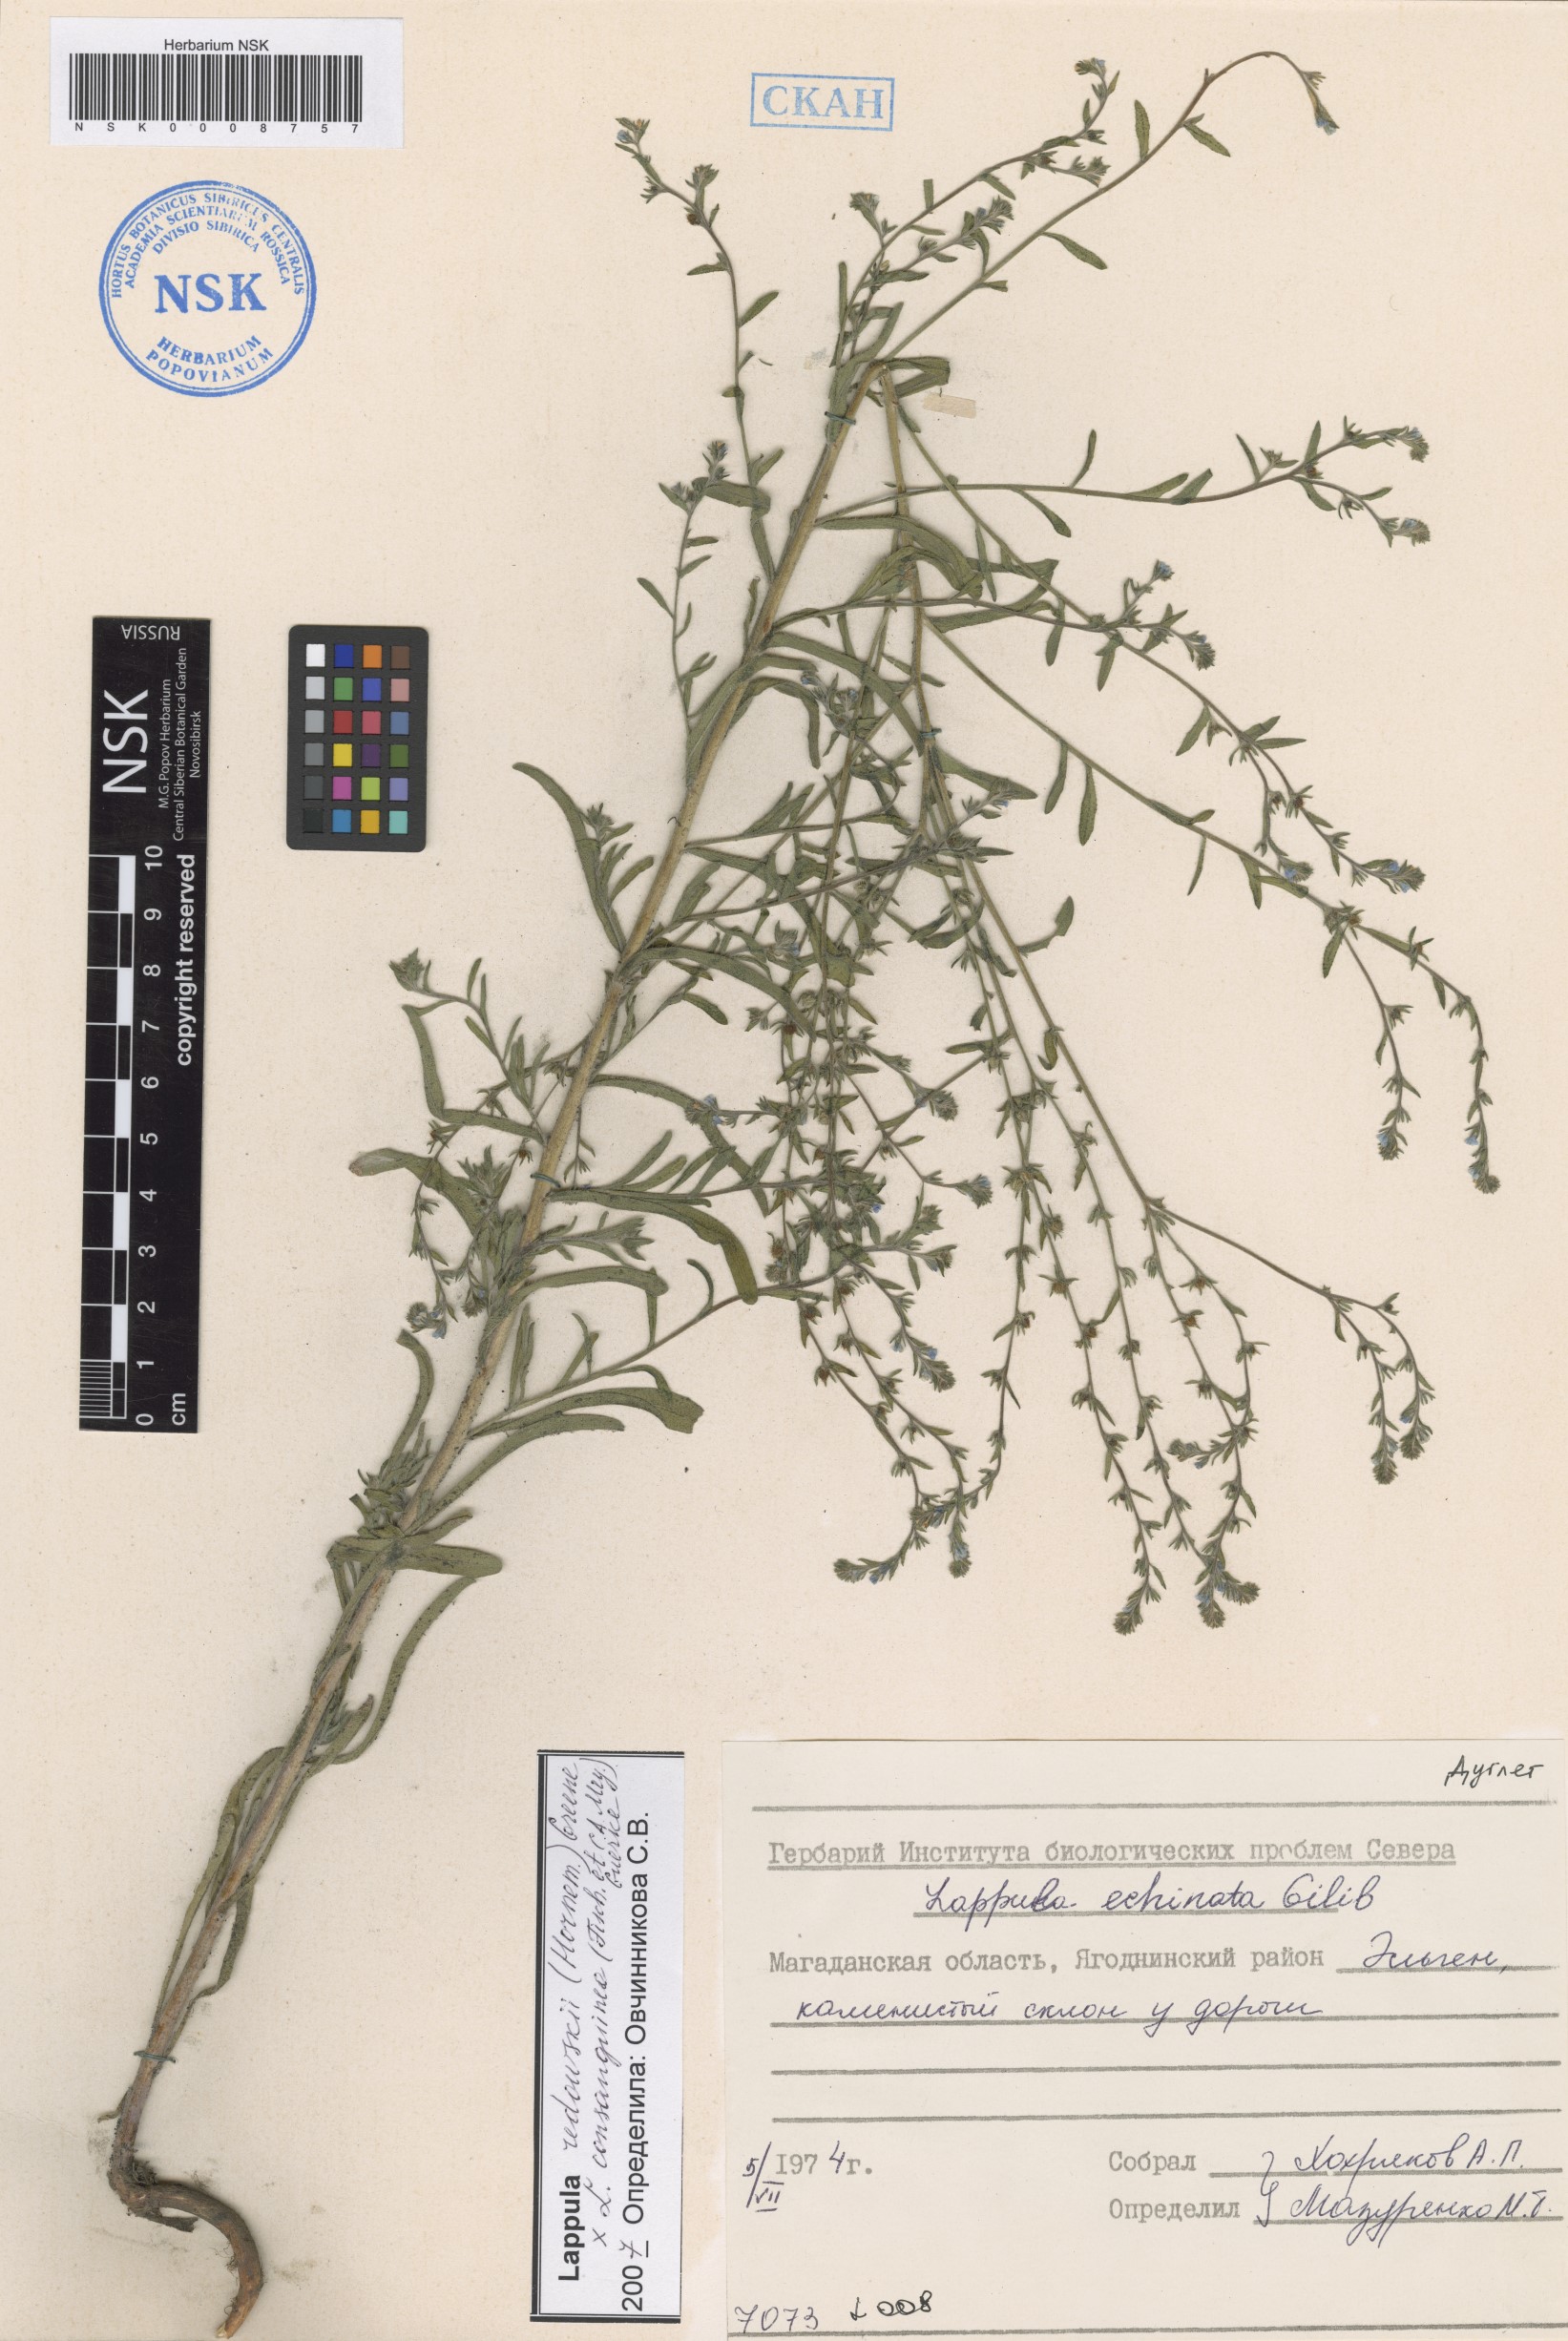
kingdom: Plantae
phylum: Tracheophyta
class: Magnoliopsida
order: Boraginales
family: Boraginaceae
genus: Lappula
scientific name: Lappula redowskii
